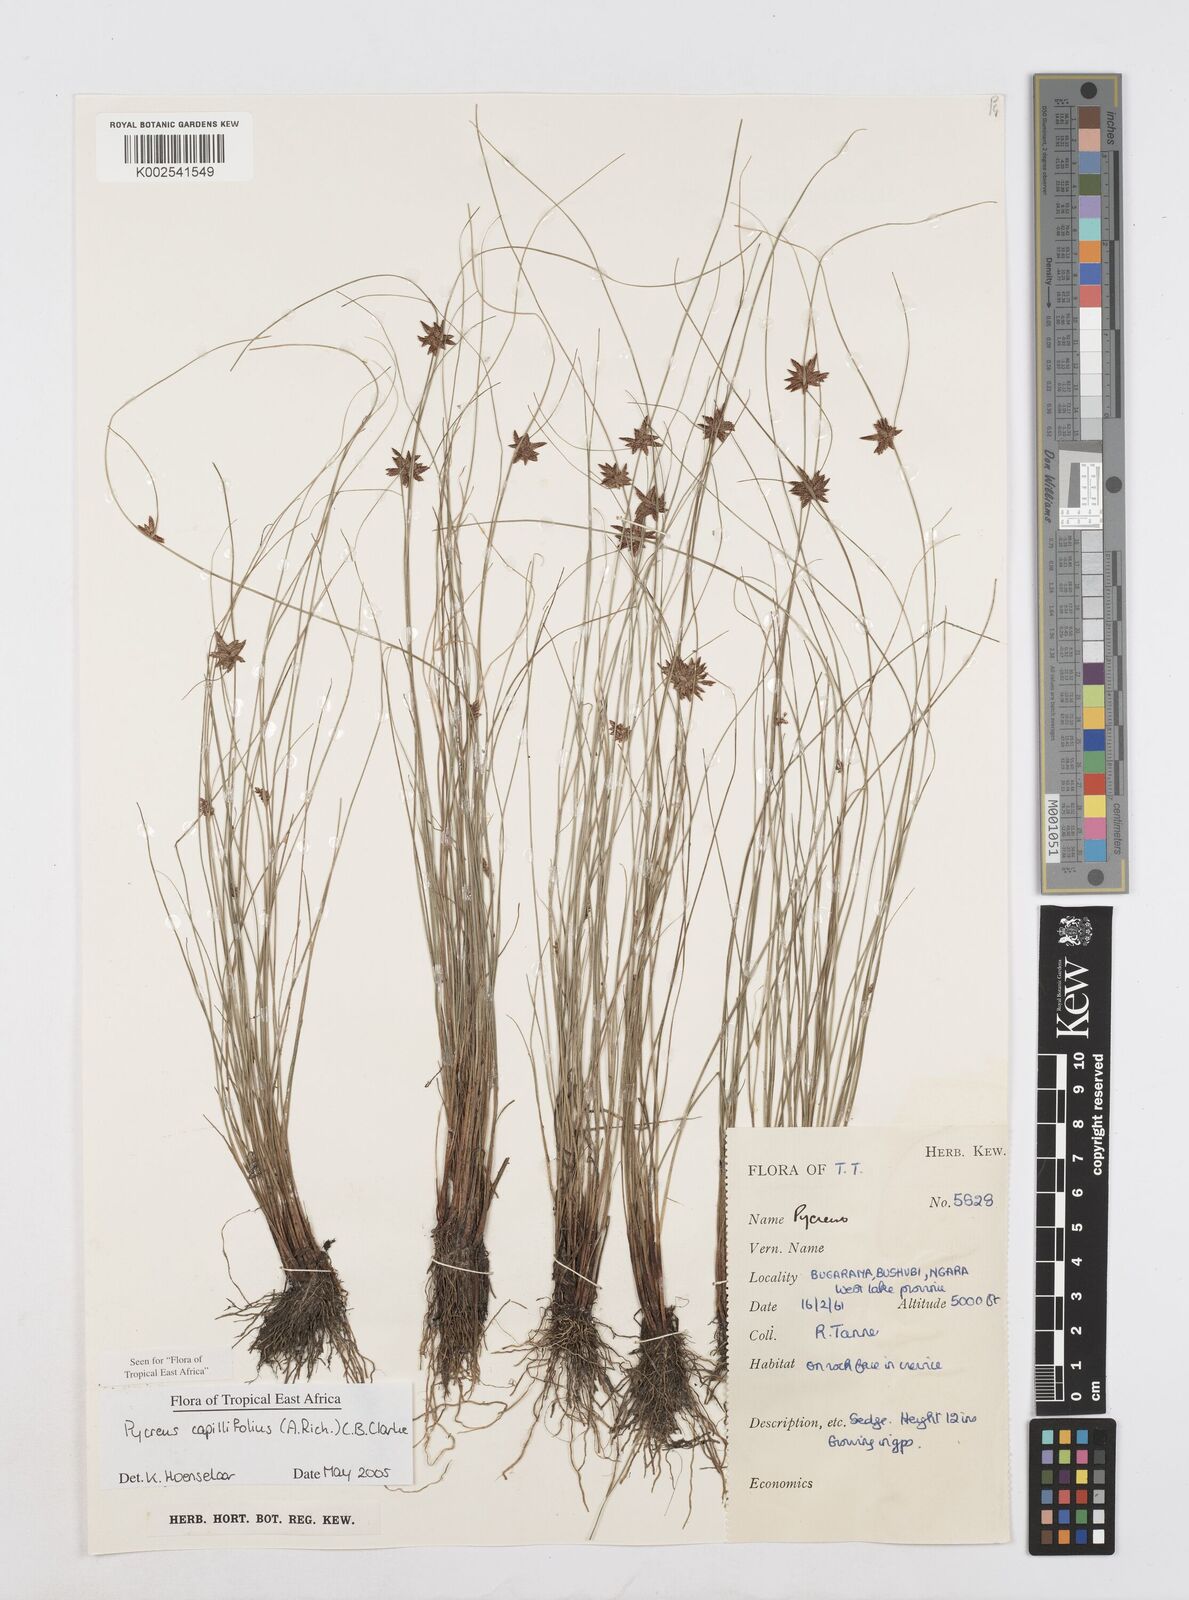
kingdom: Plantae
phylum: Tracheophyta
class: Liliopsida
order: Poales
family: Cyperaceae
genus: Cyperus
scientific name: Cyperus capillifolius
